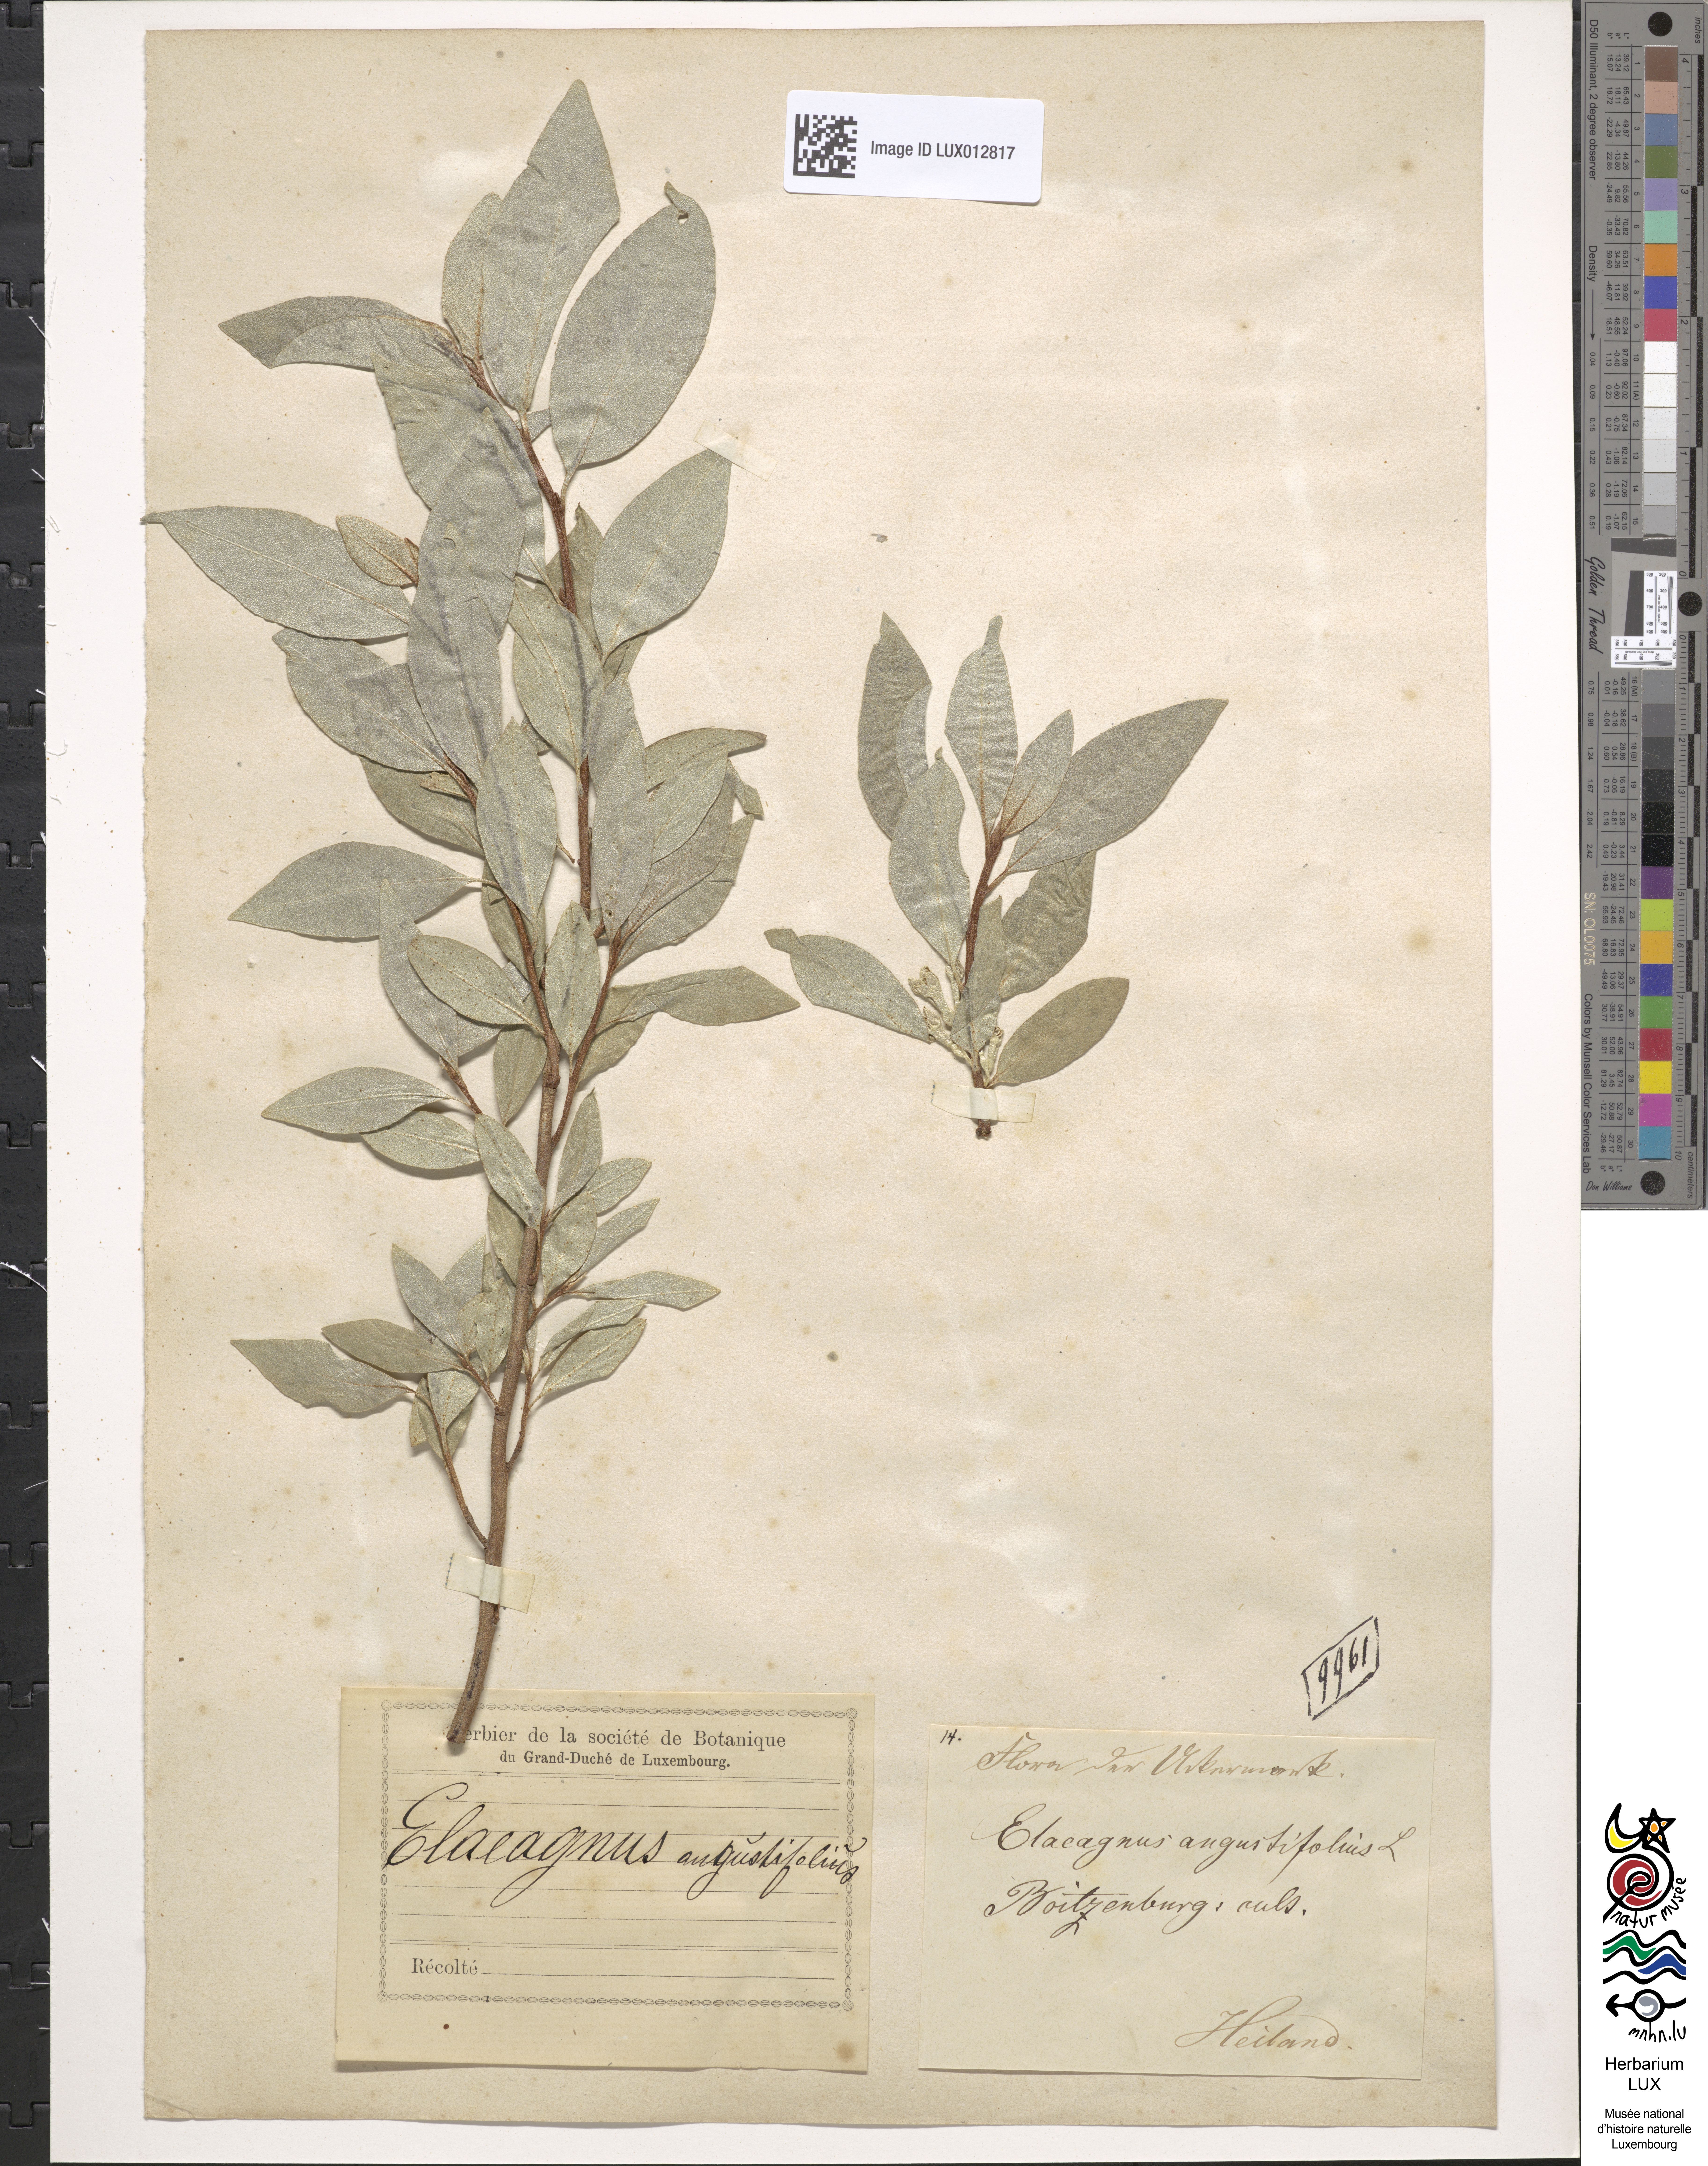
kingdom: Plantae
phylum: Tracheophyta
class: Magnoliopsida
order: Rosales
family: Elaeagnaceae
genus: Elaeagnus
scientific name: Elaeagnus angustifolia
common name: Russian olive
